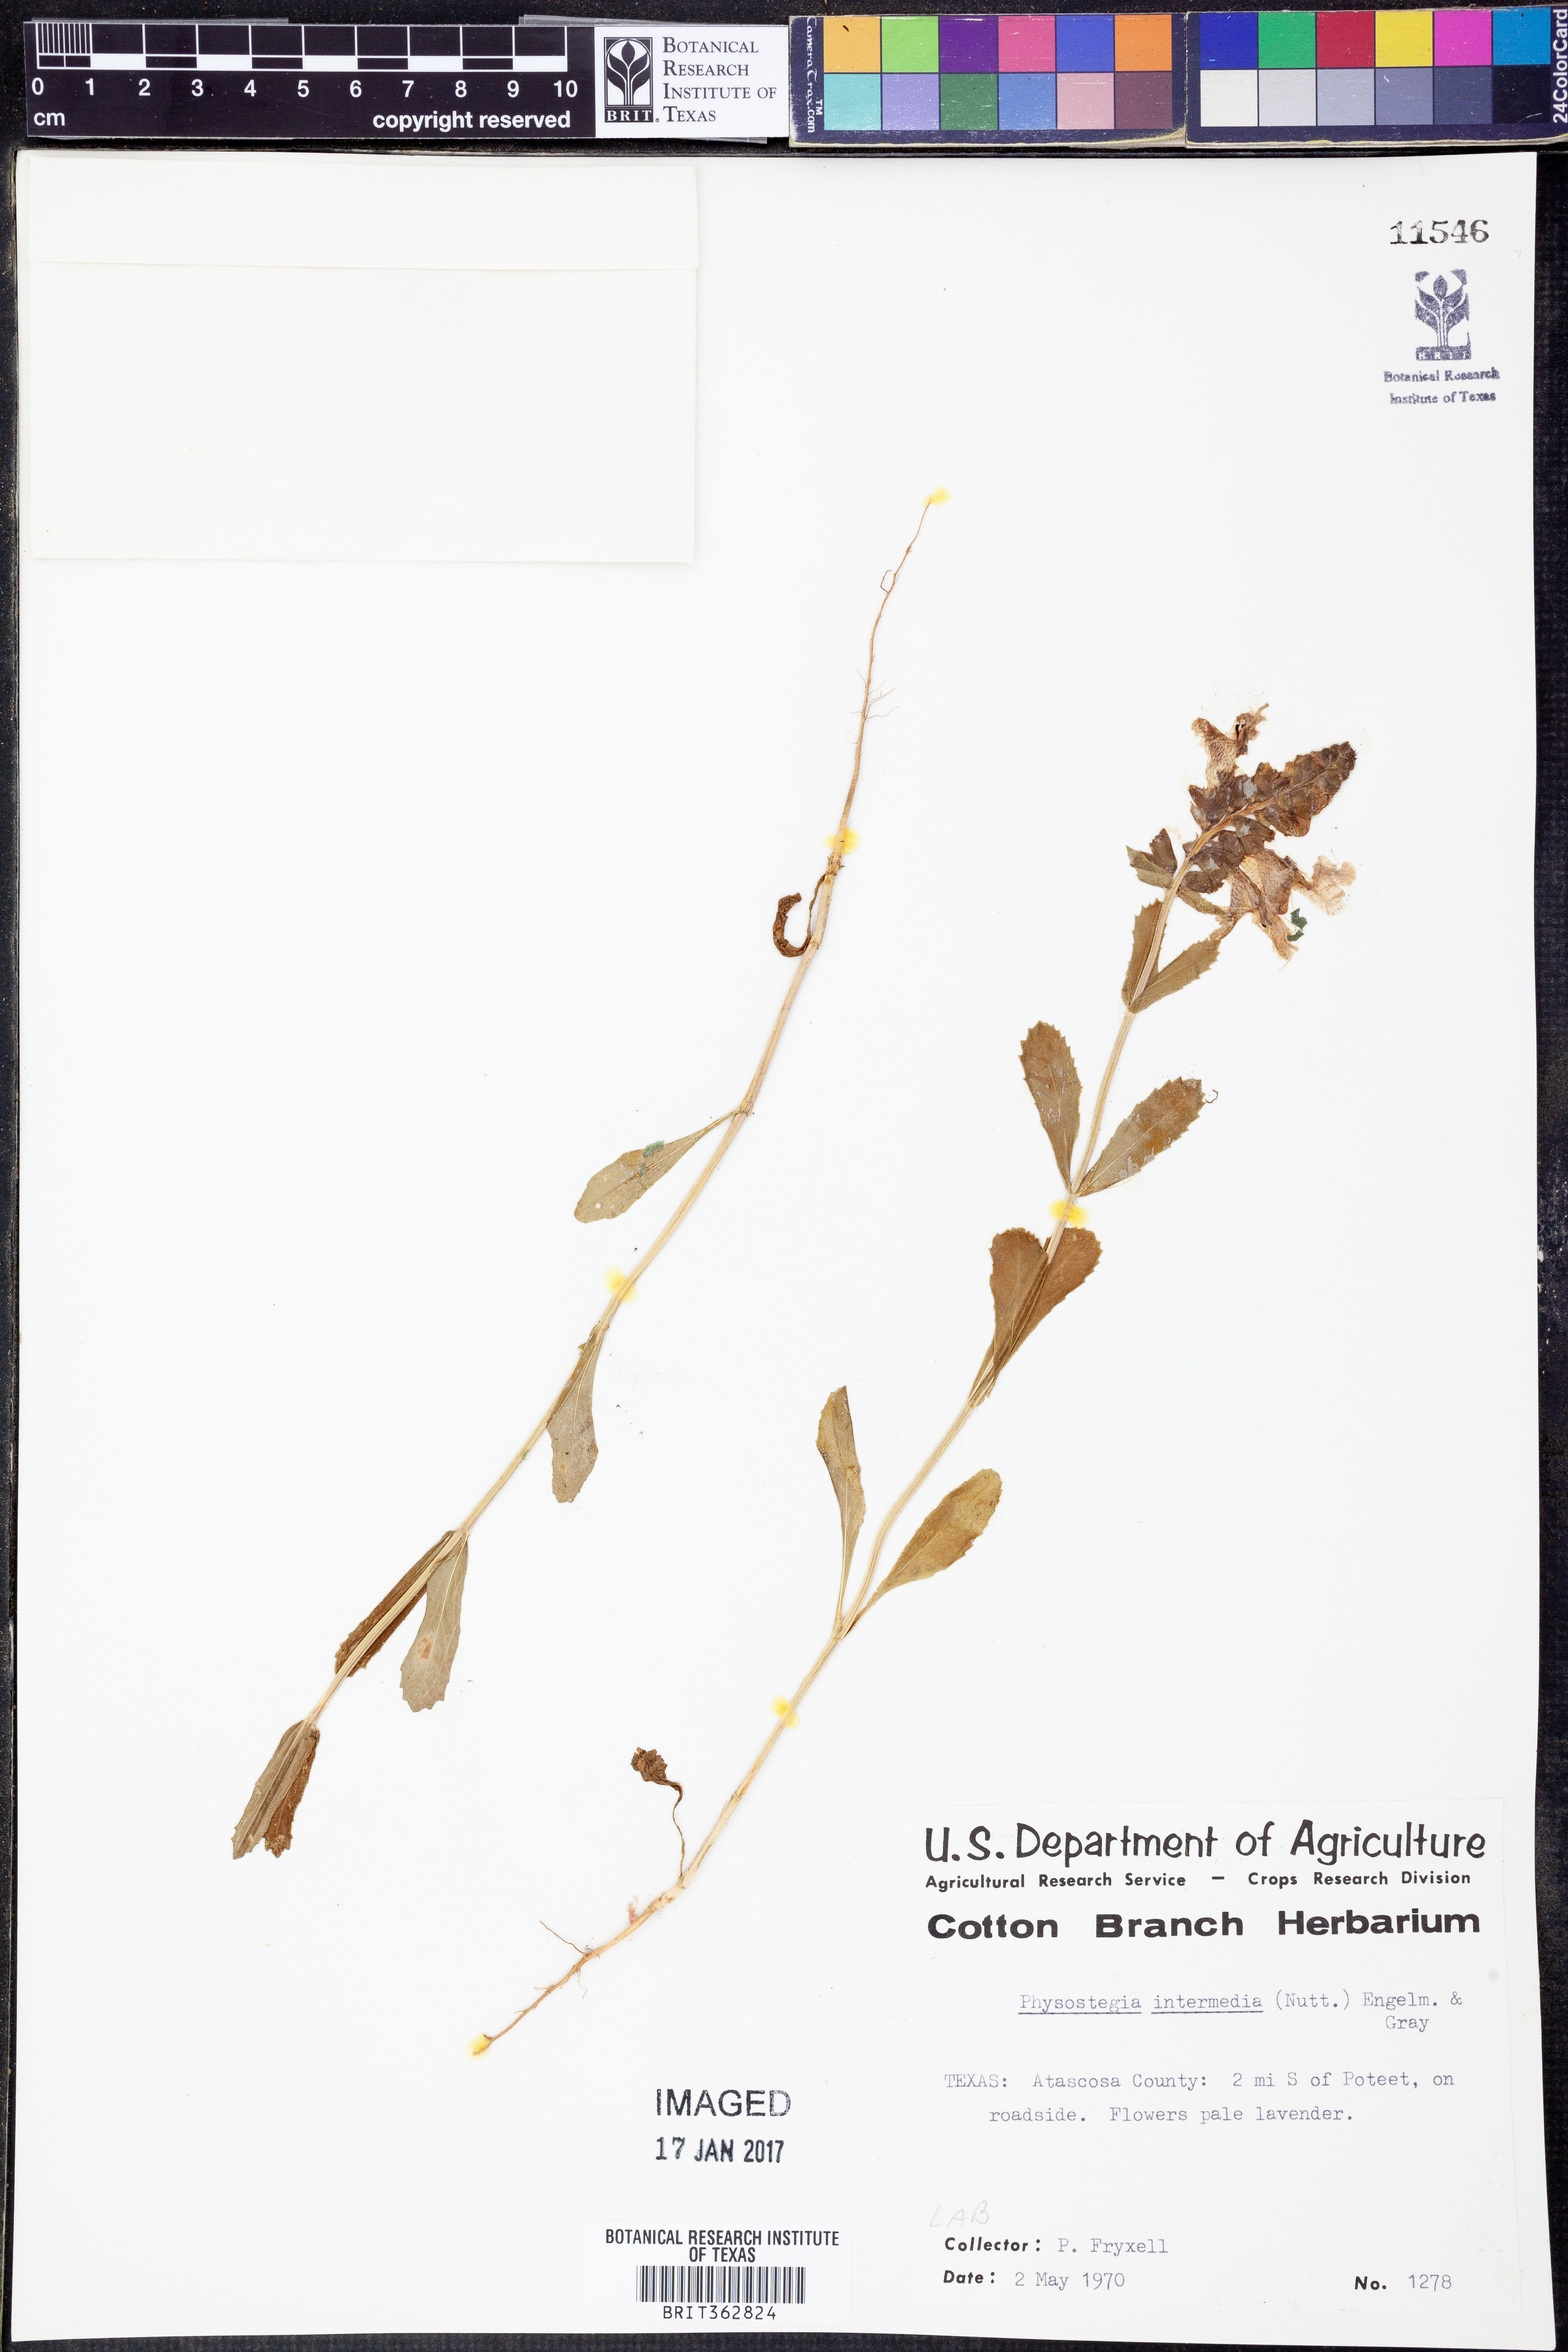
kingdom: Plantae
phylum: Tracheophyta
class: Magnoliopsida
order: Lamiales
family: Lamiaceae
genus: Physostegia
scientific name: Physostegia intermedia
